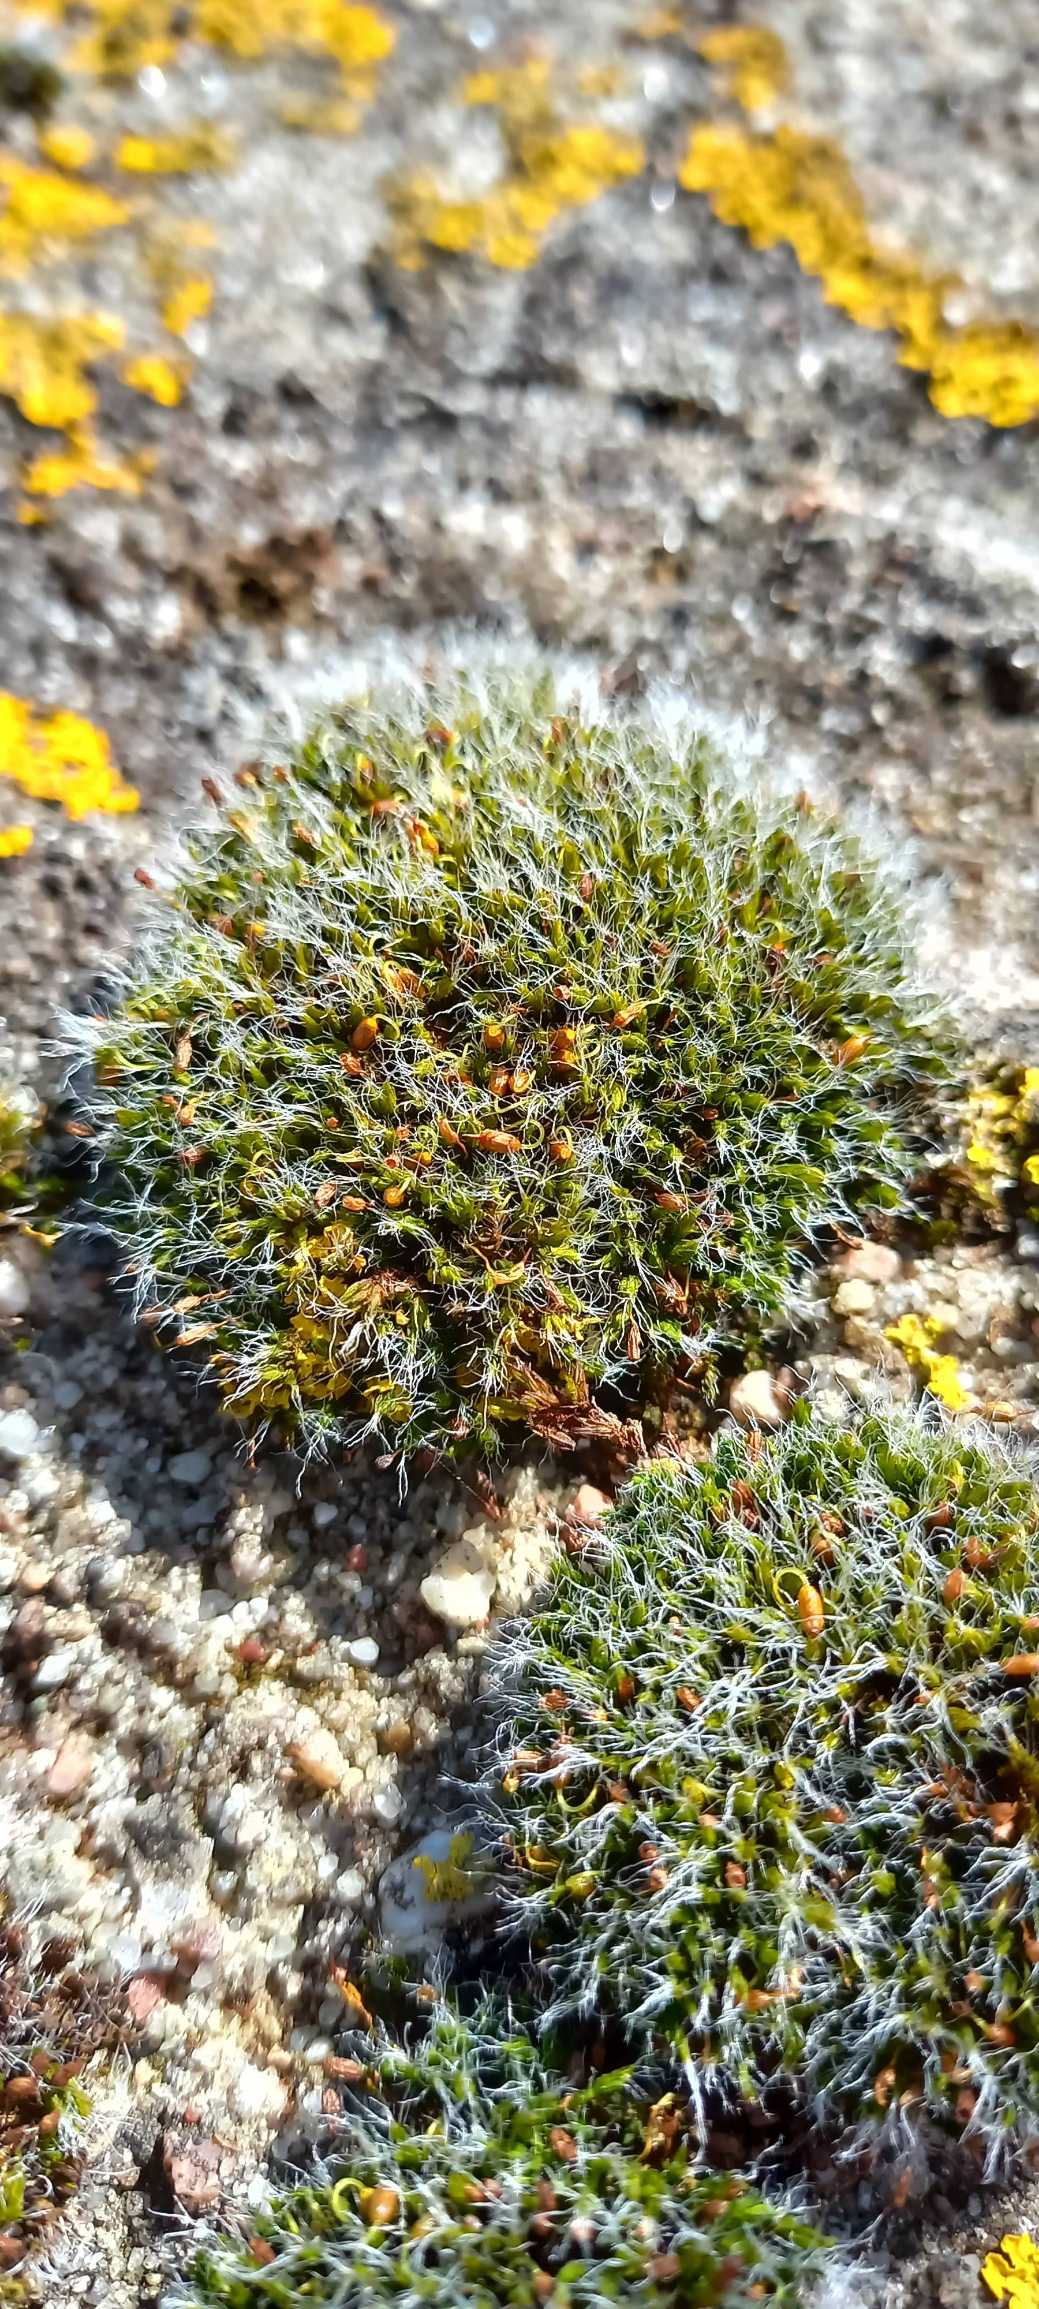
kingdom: Plantae
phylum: Bryophyta
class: Bryopsida
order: Grimmiales
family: Grimmiaceae
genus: Grimmia
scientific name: Grimmia pulvinata
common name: Pude-gråmos
